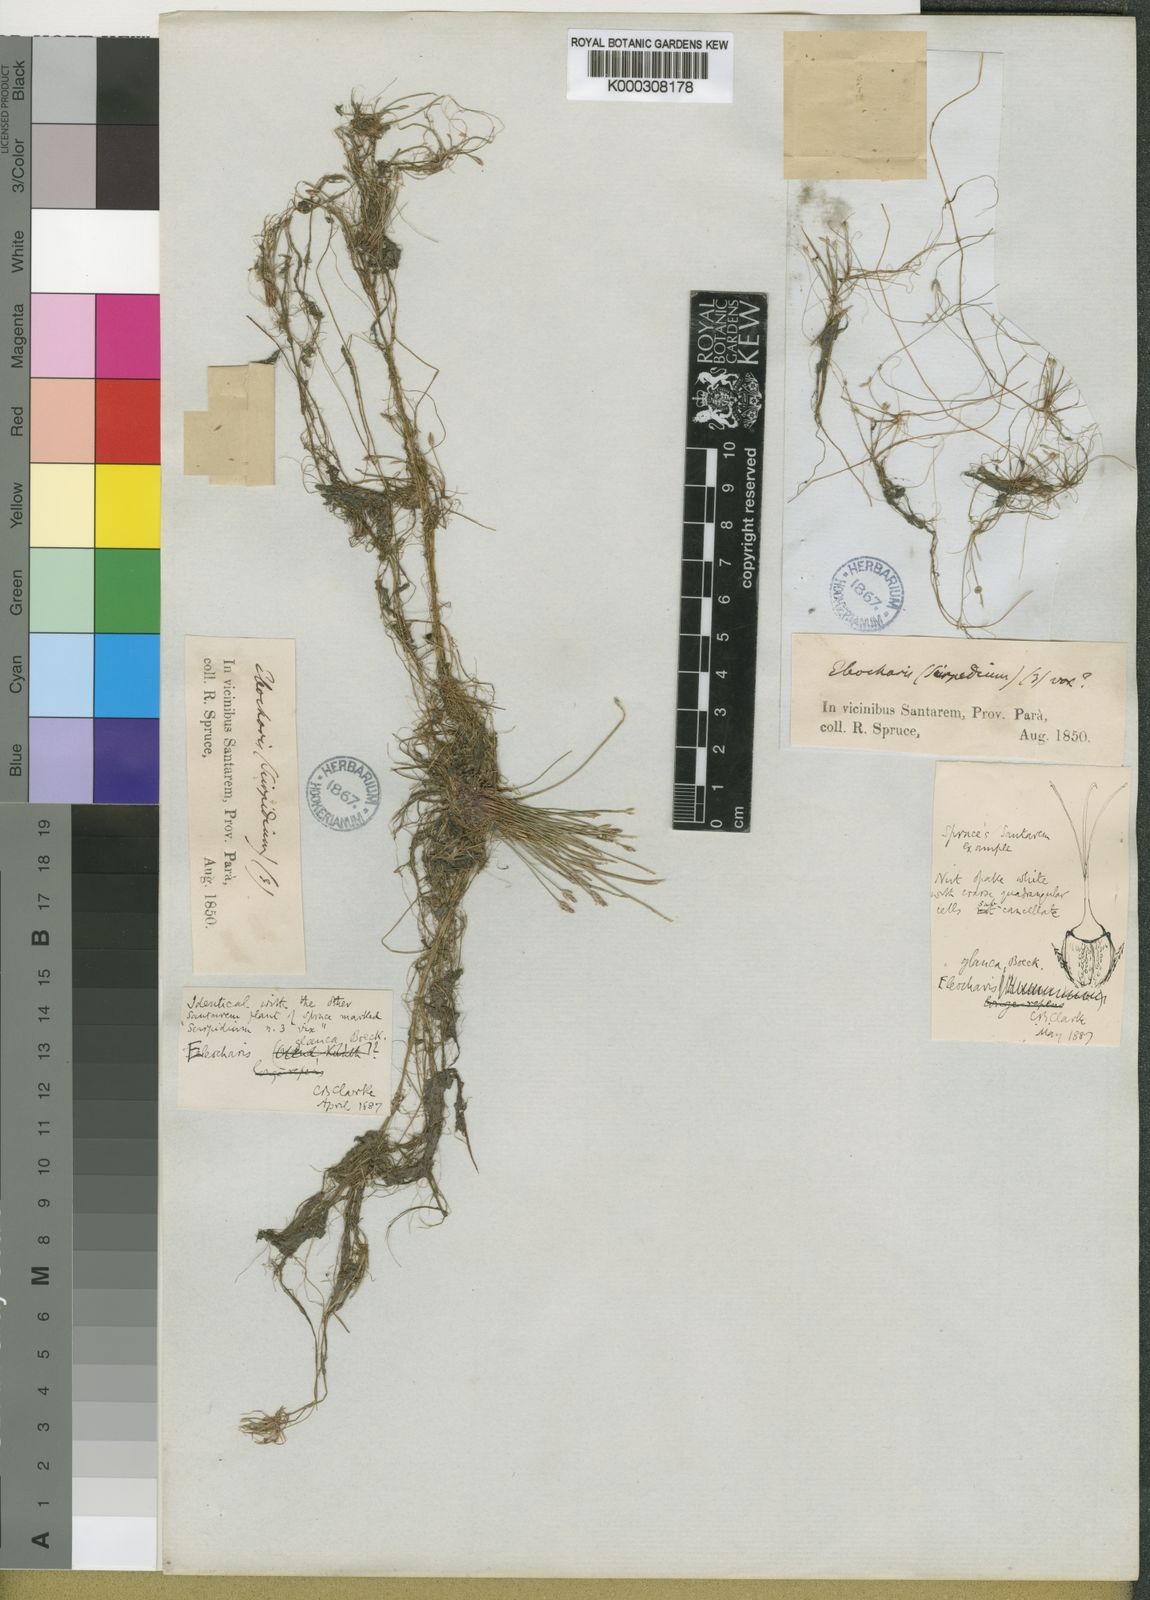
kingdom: Plantae
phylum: Tracheophyta
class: Liliopsida
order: Poales
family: Cyperaceae
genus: Eleocharis
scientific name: Eleocharis glauca
